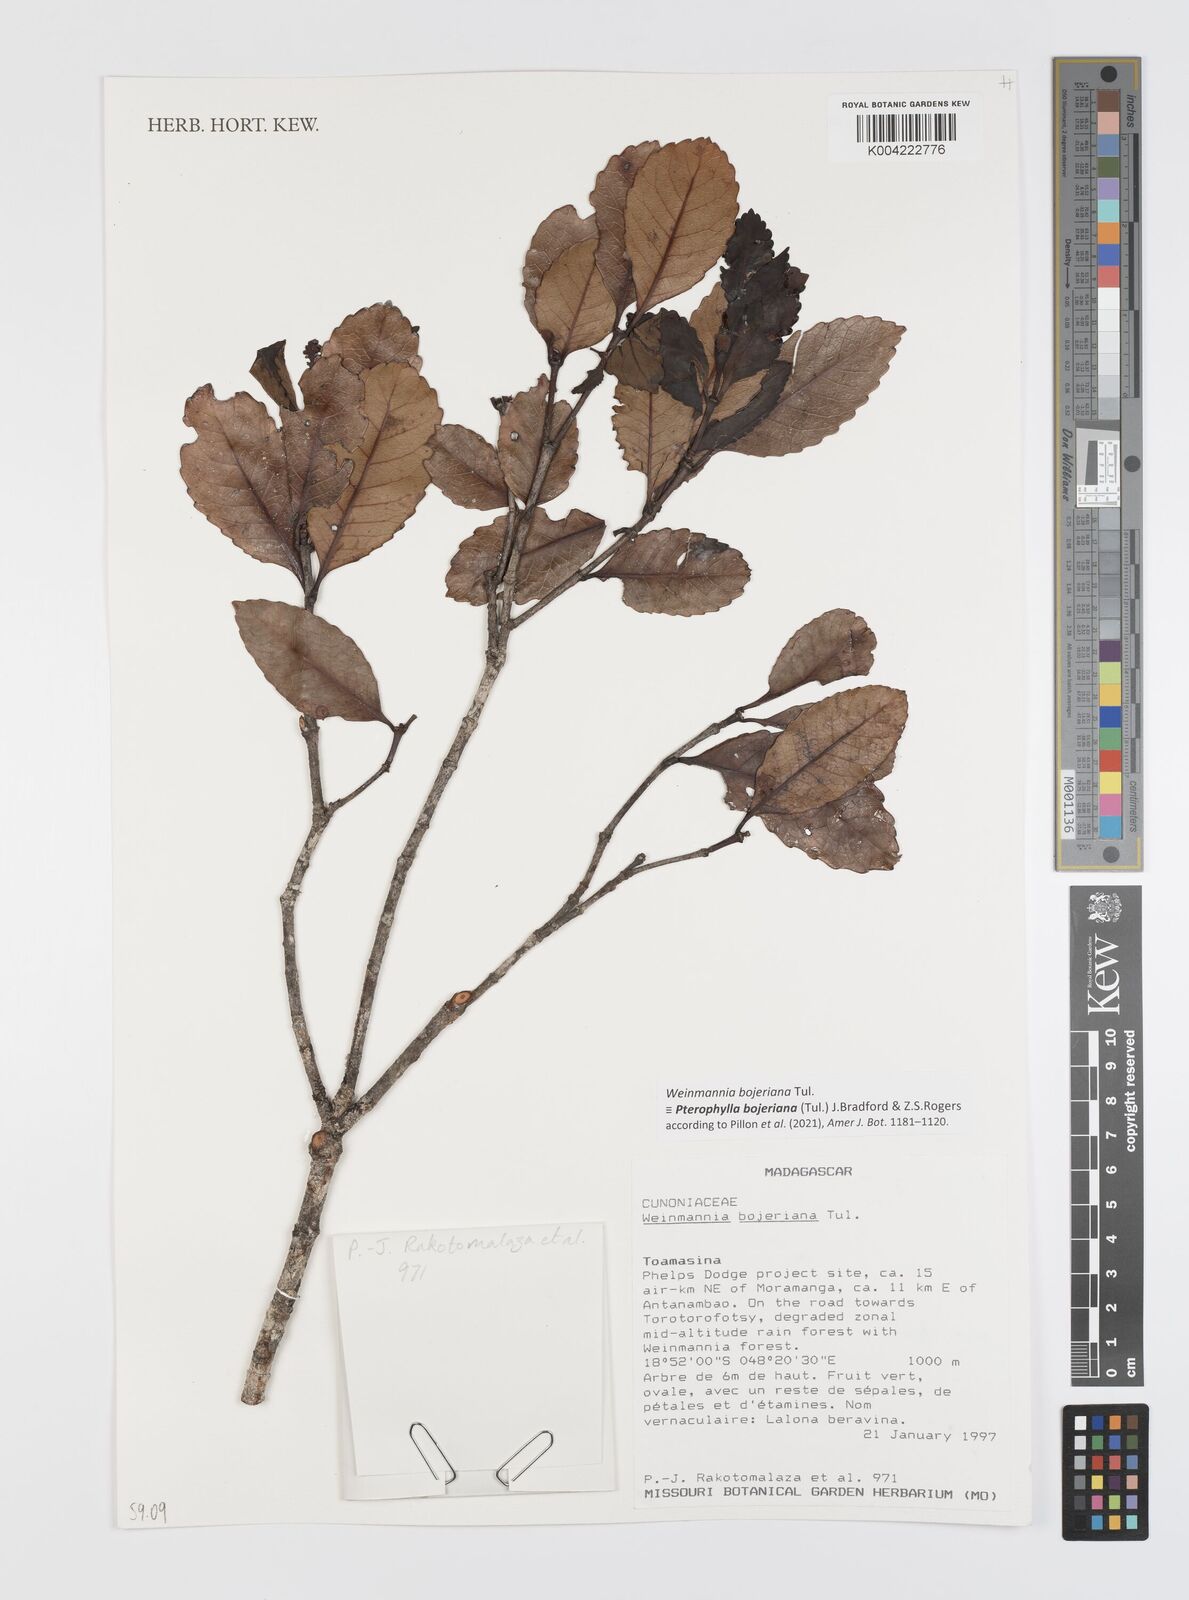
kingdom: Plantae
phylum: Tracheophyta
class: Magnoliopsida
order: Oxalidales
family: Cunoniaceae
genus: Pterophylla
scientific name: Pterophylla
